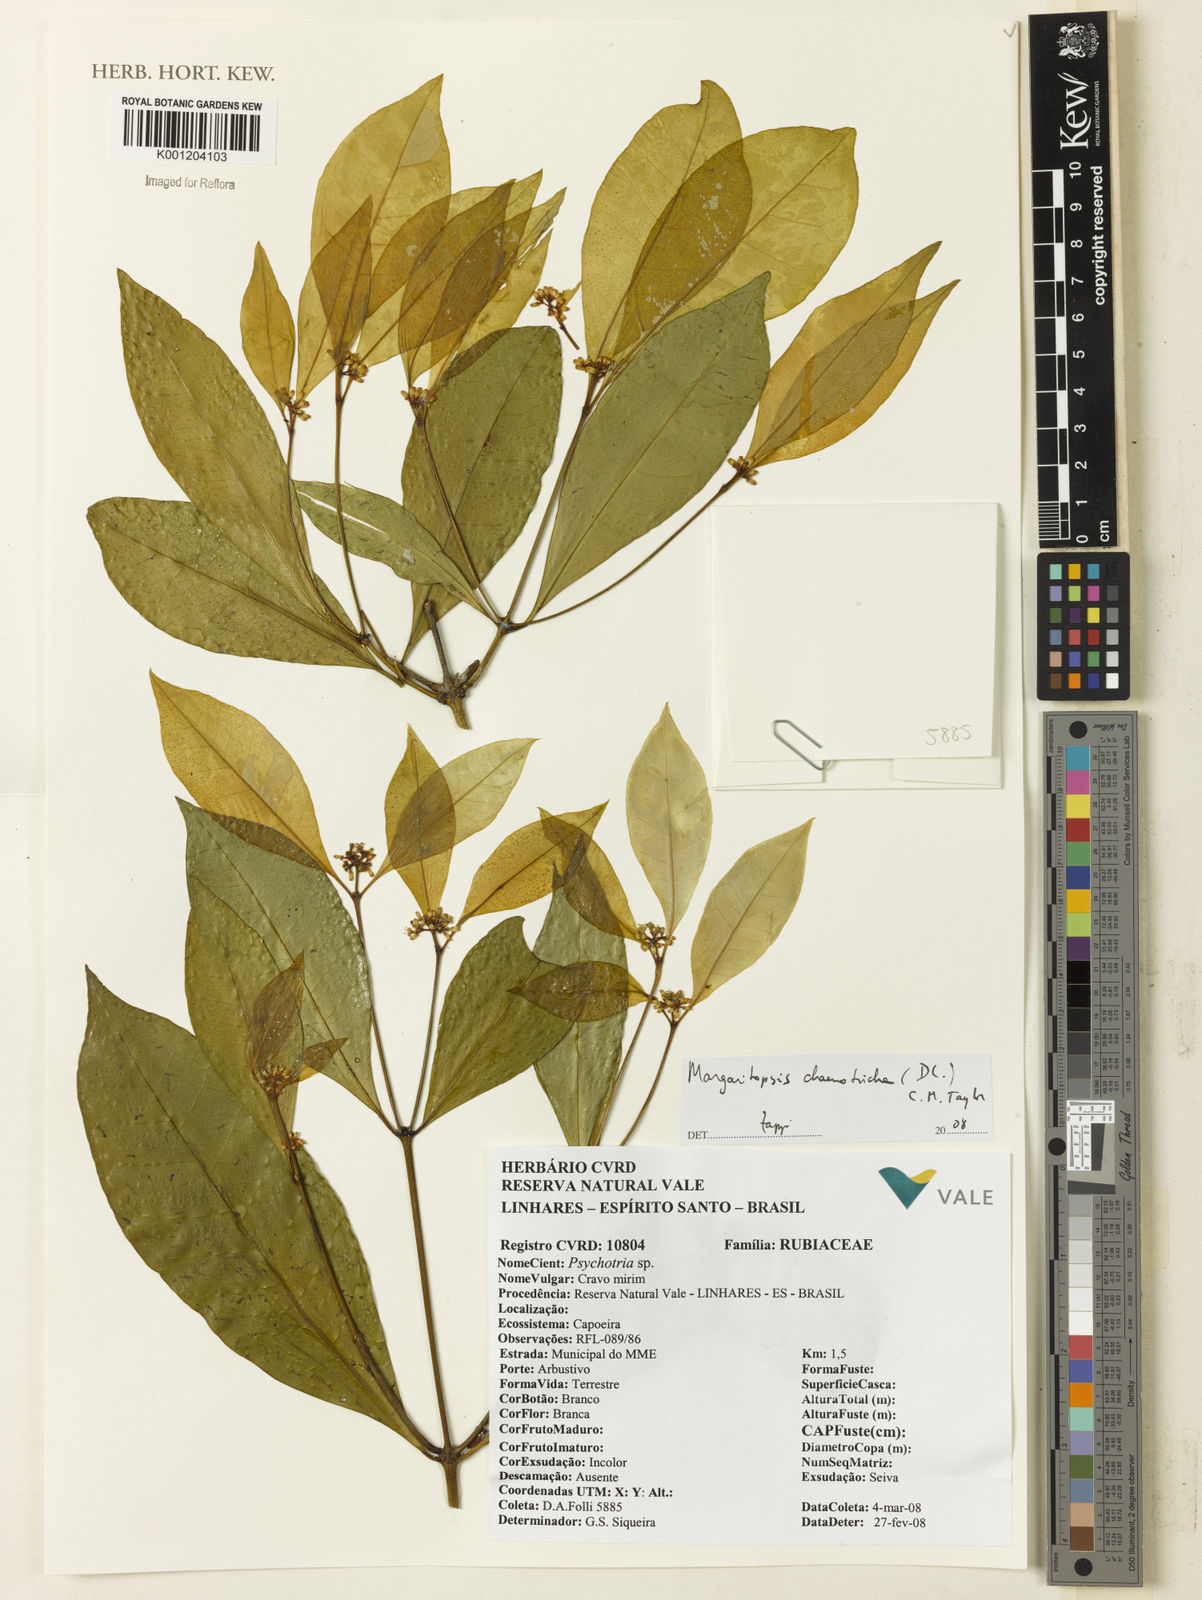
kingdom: Plantae
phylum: Tracheophyta
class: Magnoliopsida
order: Gentianales
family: Rubiaceae
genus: Eumachia
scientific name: Eumachia chaenotricha
